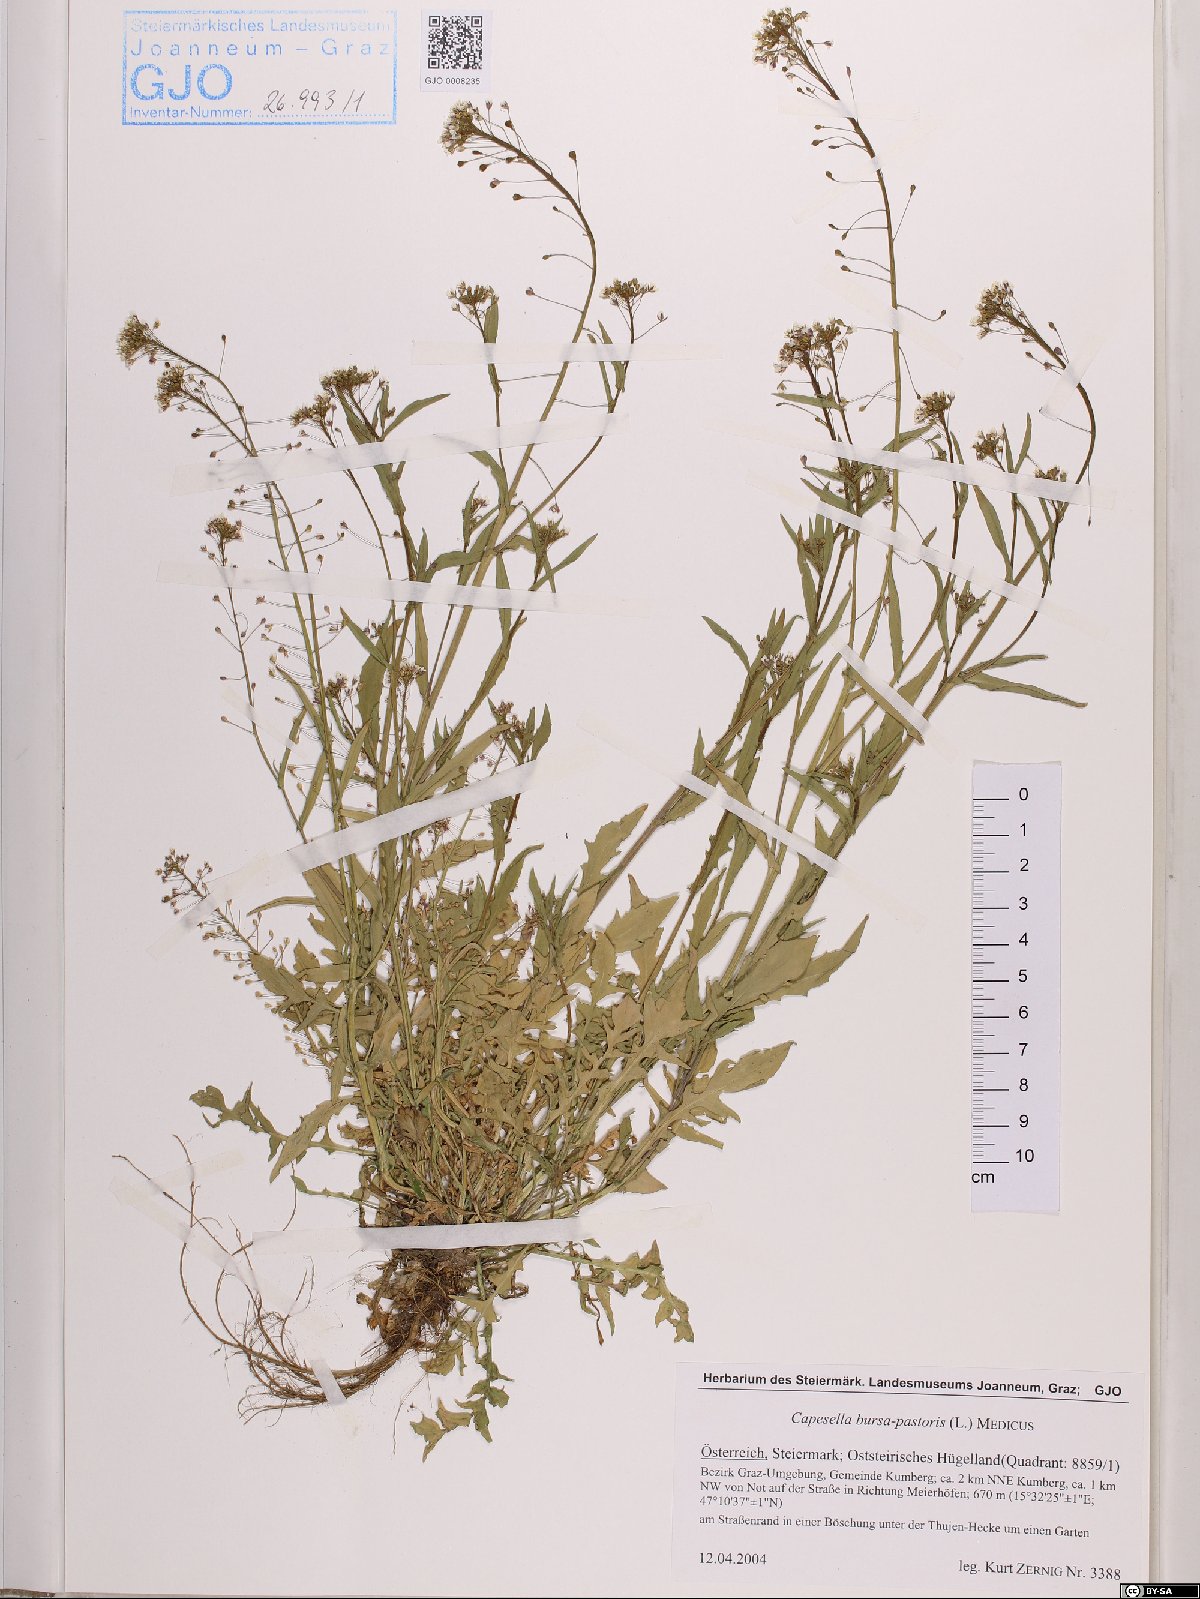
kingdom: Plantae
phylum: Tracheophyta
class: Magnoliopsida
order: Brassicales
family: Brassicaceae
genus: Capsella
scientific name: Capsella bursa-pastoris
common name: Shepherd's purse
